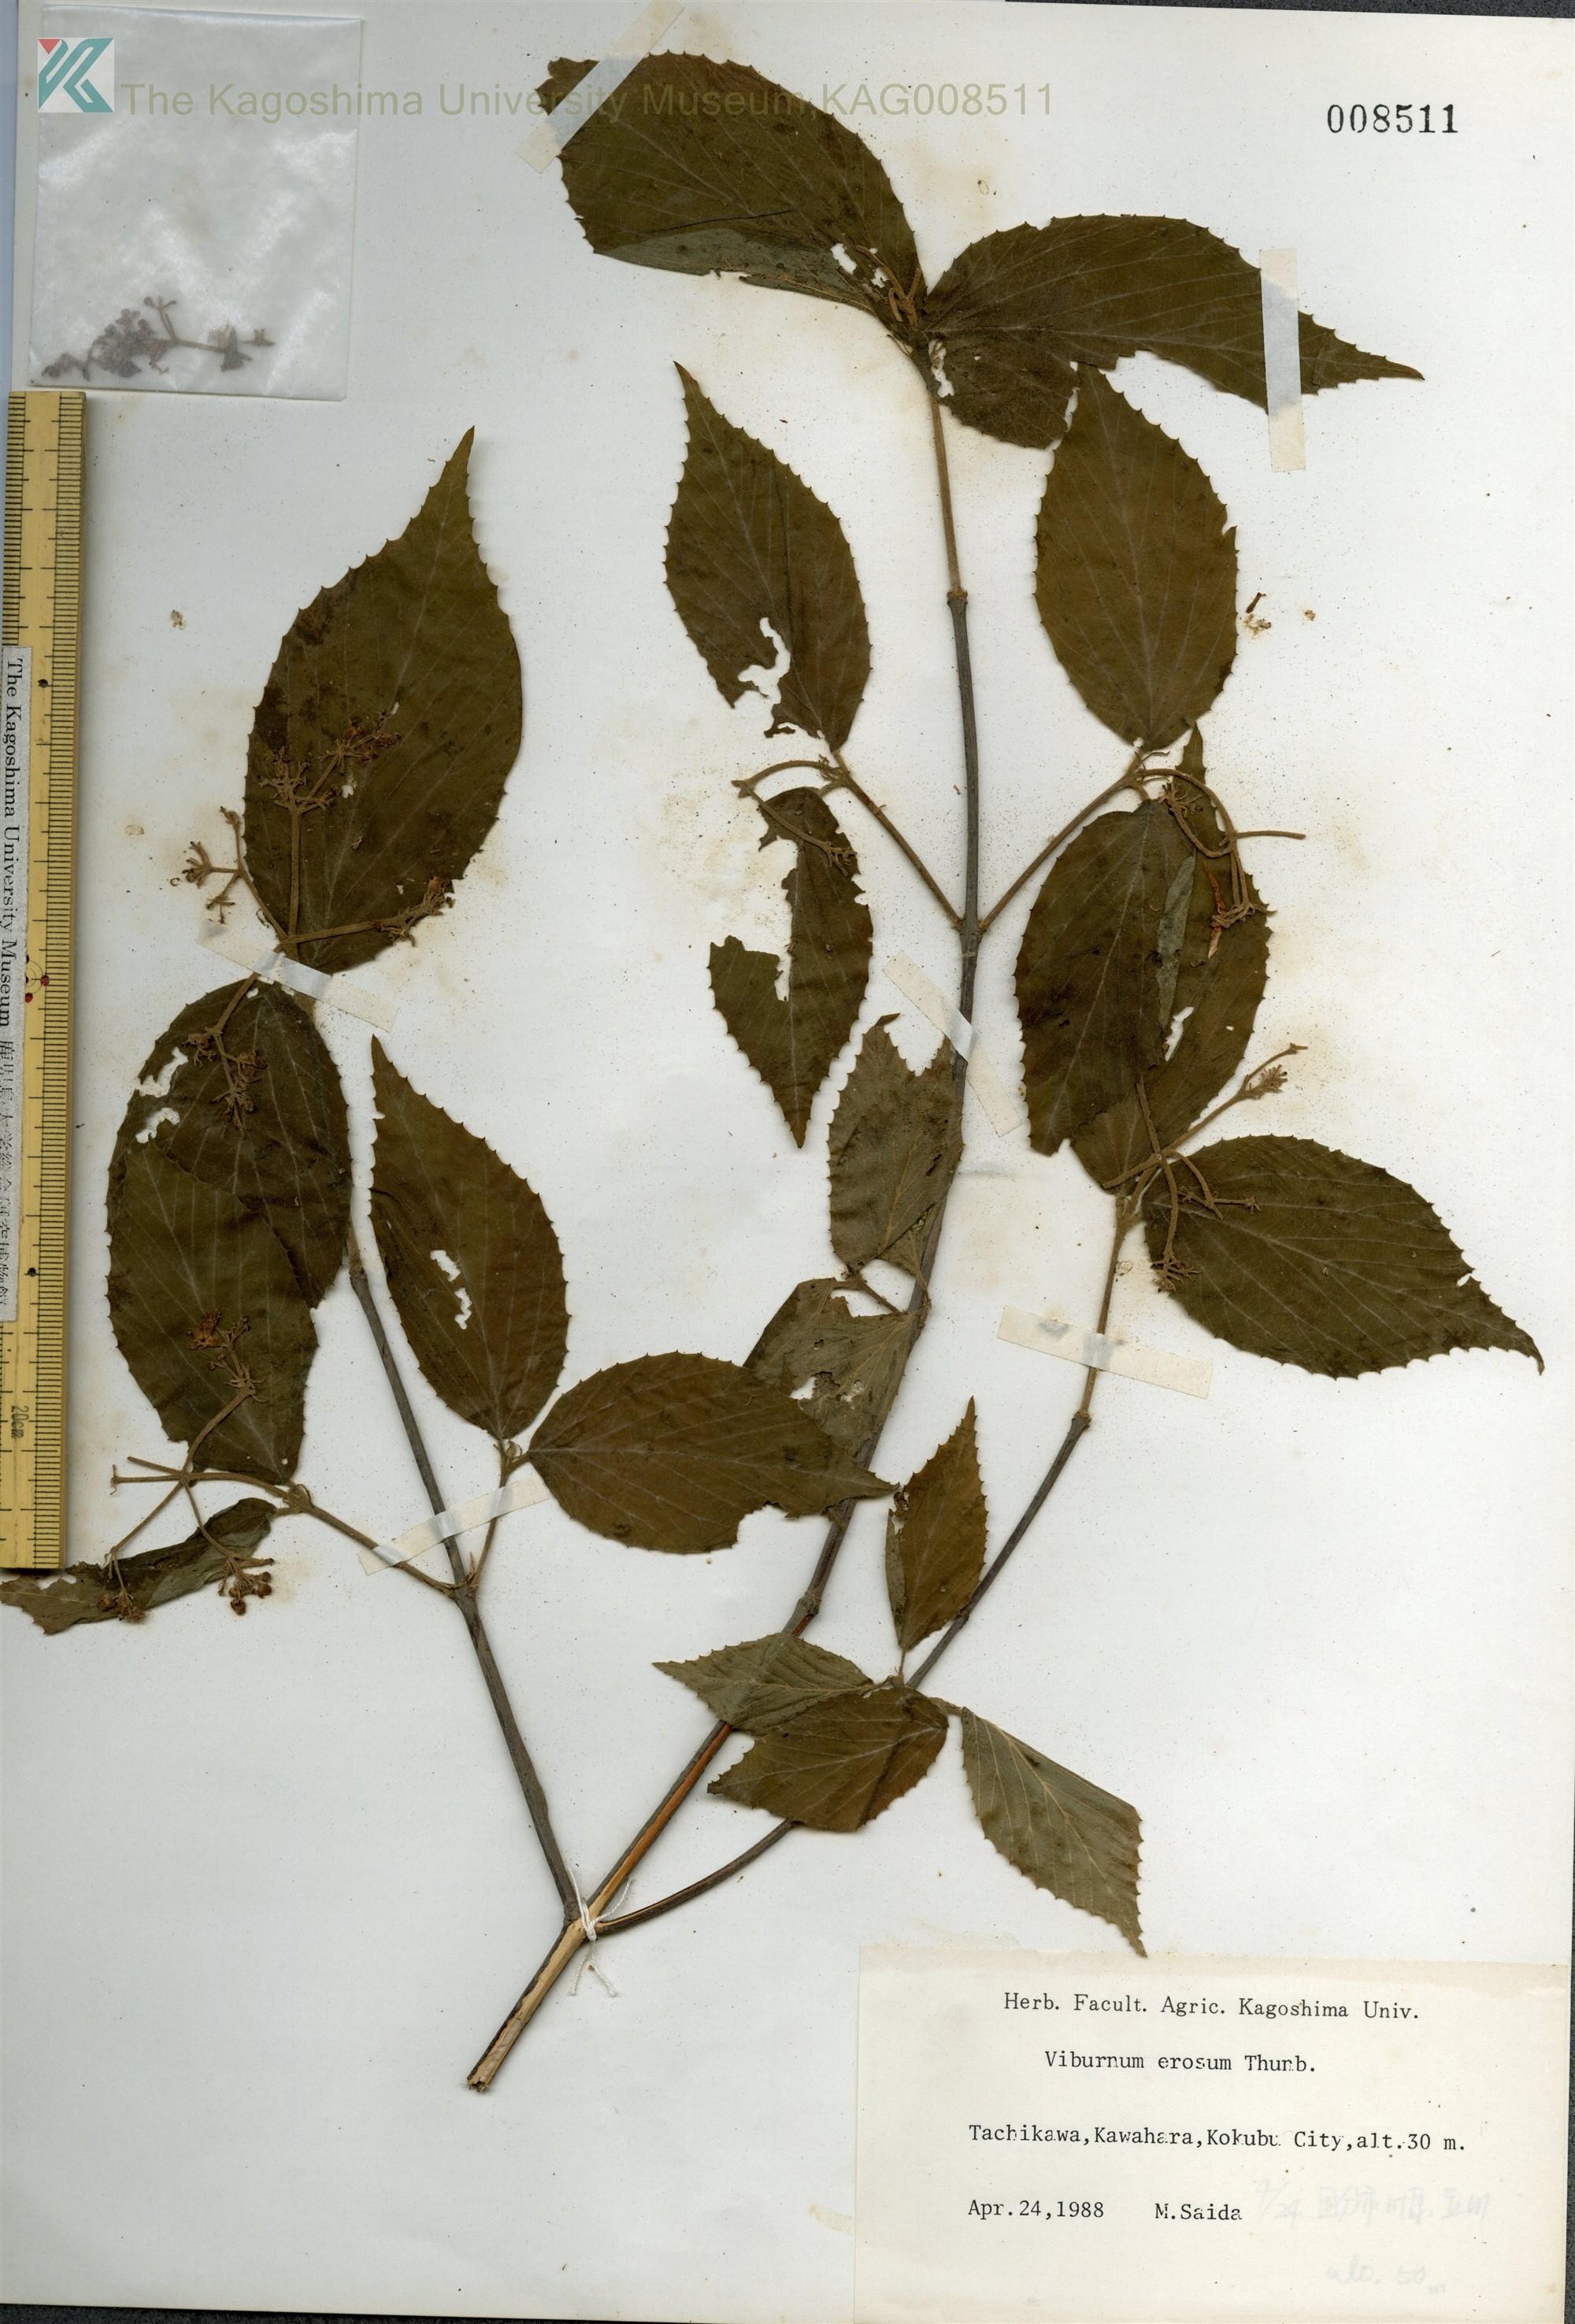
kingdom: Plantae
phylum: Tracheophyta
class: Magnoliopsida
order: Dipsacales
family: Viburnaceae
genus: Viburnum
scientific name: Viburnum erosum
